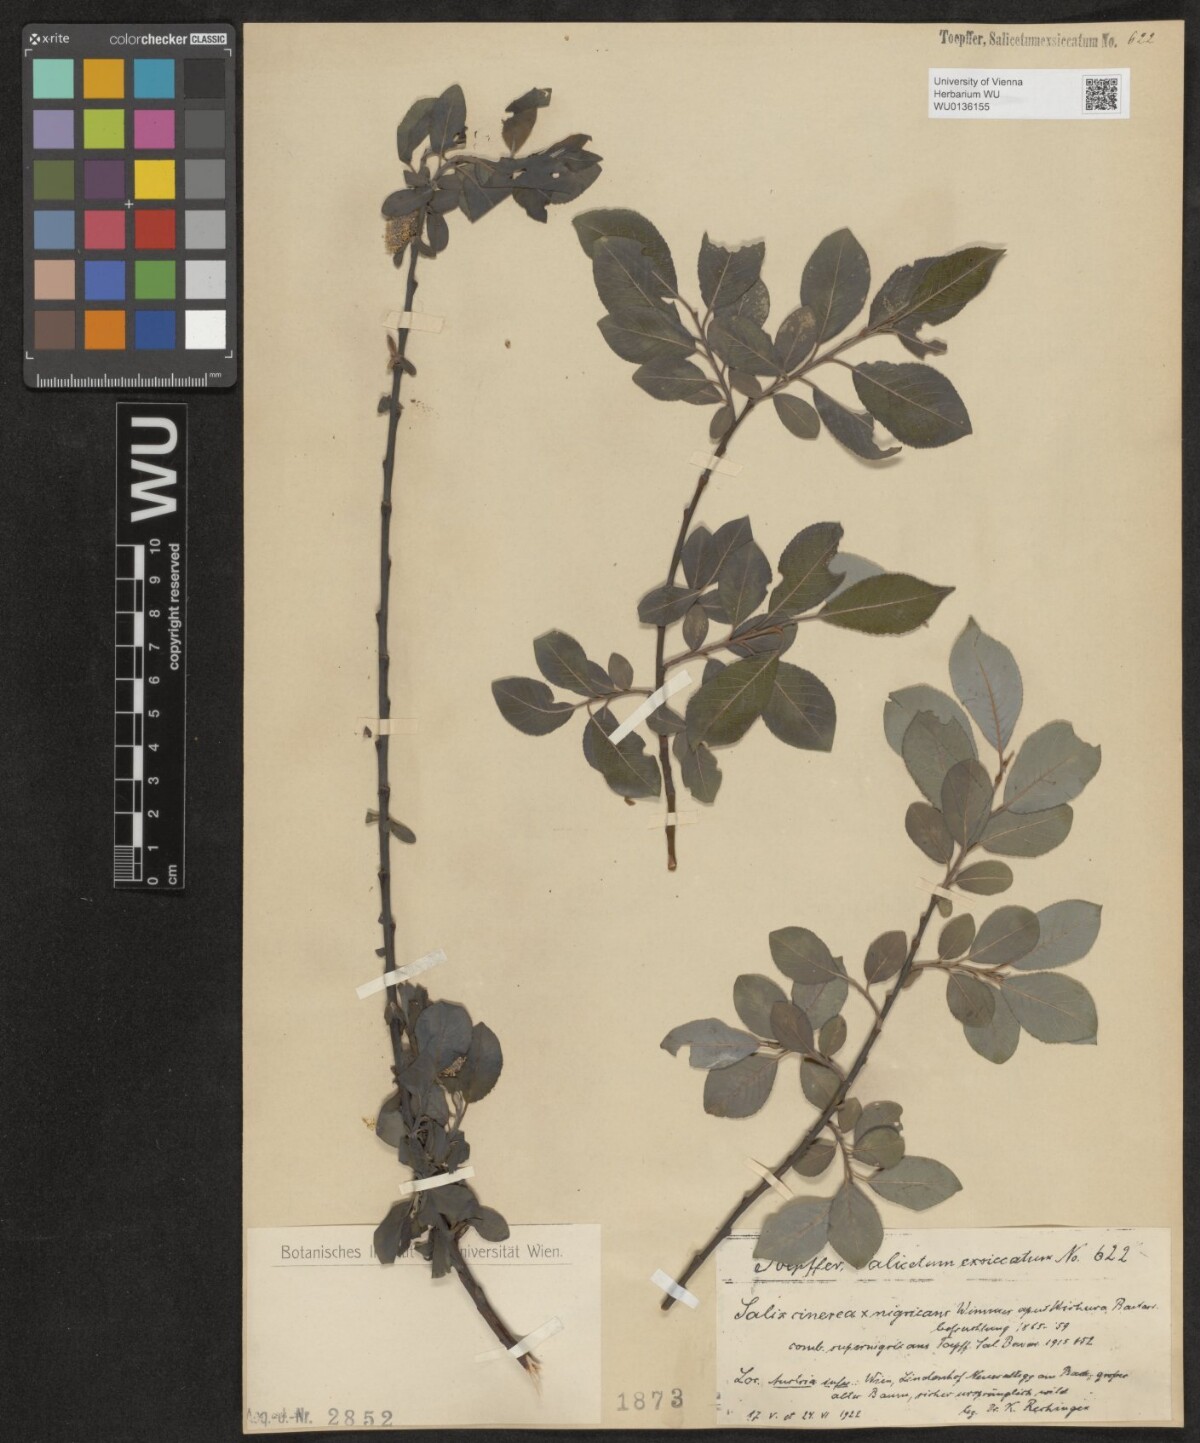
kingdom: Plantae
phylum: Tracheophyta
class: Magnoliopsida
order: Malpighiales
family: Salicaceae
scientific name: Salicaceae
